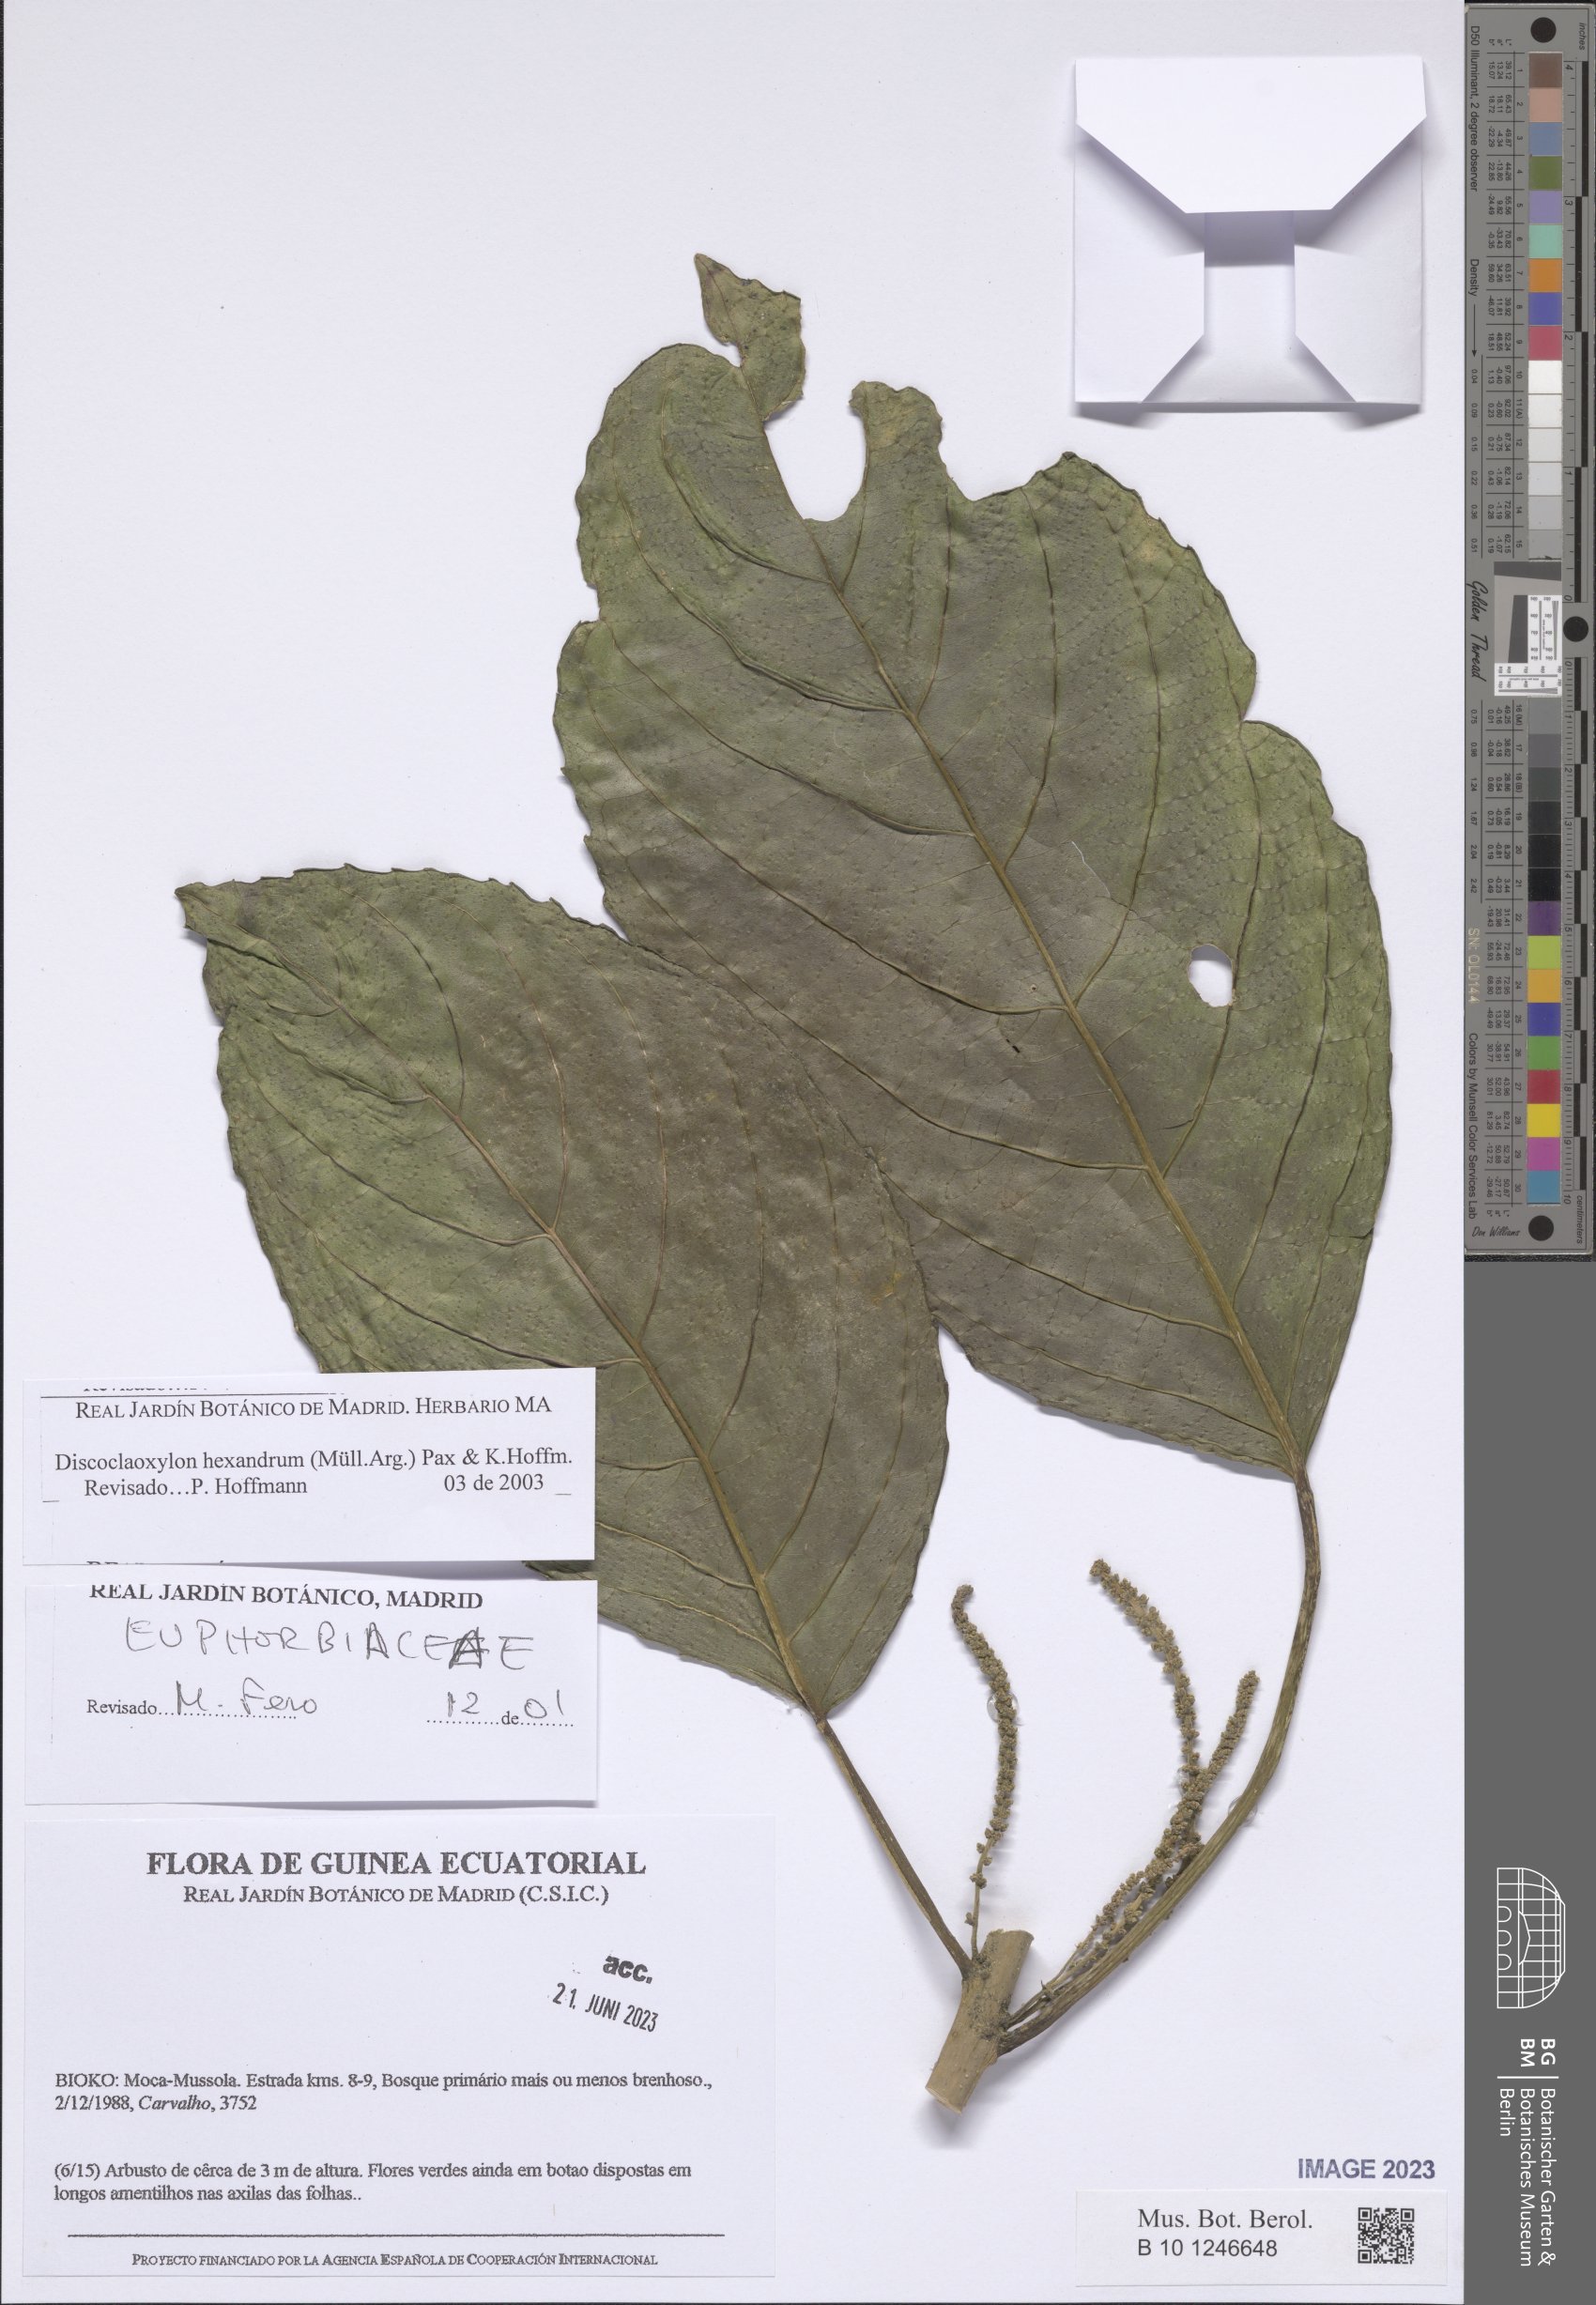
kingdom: Plantae
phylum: Tracheophyta
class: Magnoliopsida
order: Malpighiales
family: Euphorbiaceae
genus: Discoclaoxylon
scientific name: Discoclaoxylon hexandrum
